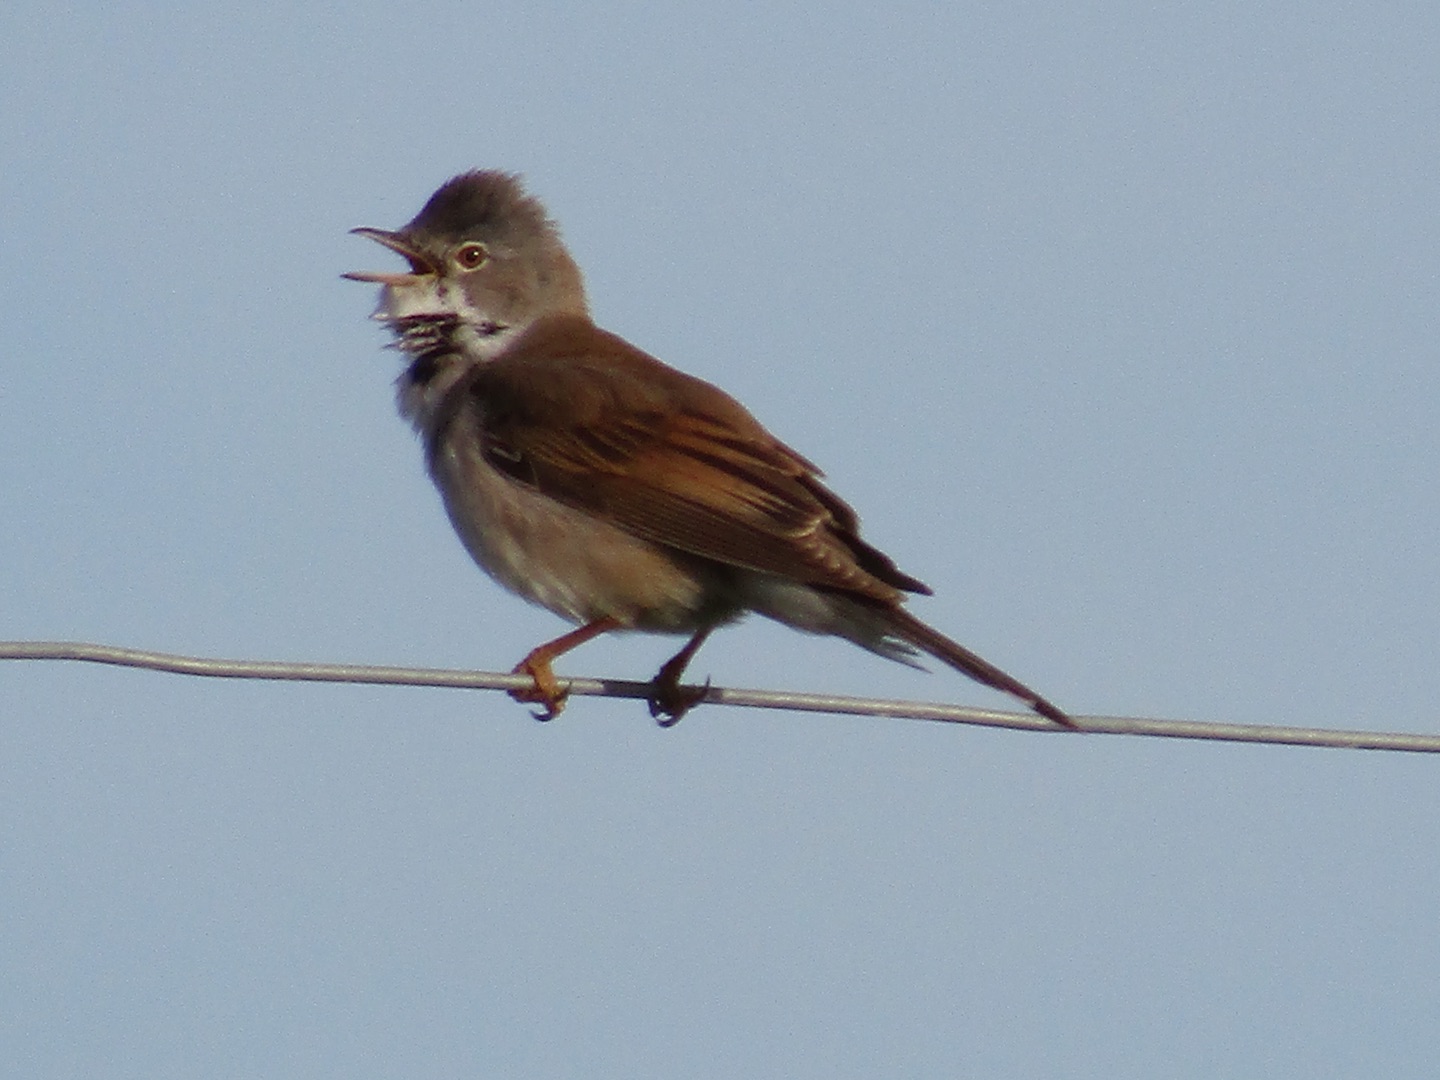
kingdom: Animalia
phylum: Chordata
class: Aves
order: Passeriformes
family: Sylviidae
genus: Sylvia
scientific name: Sylvia communis
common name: Tornsanger
